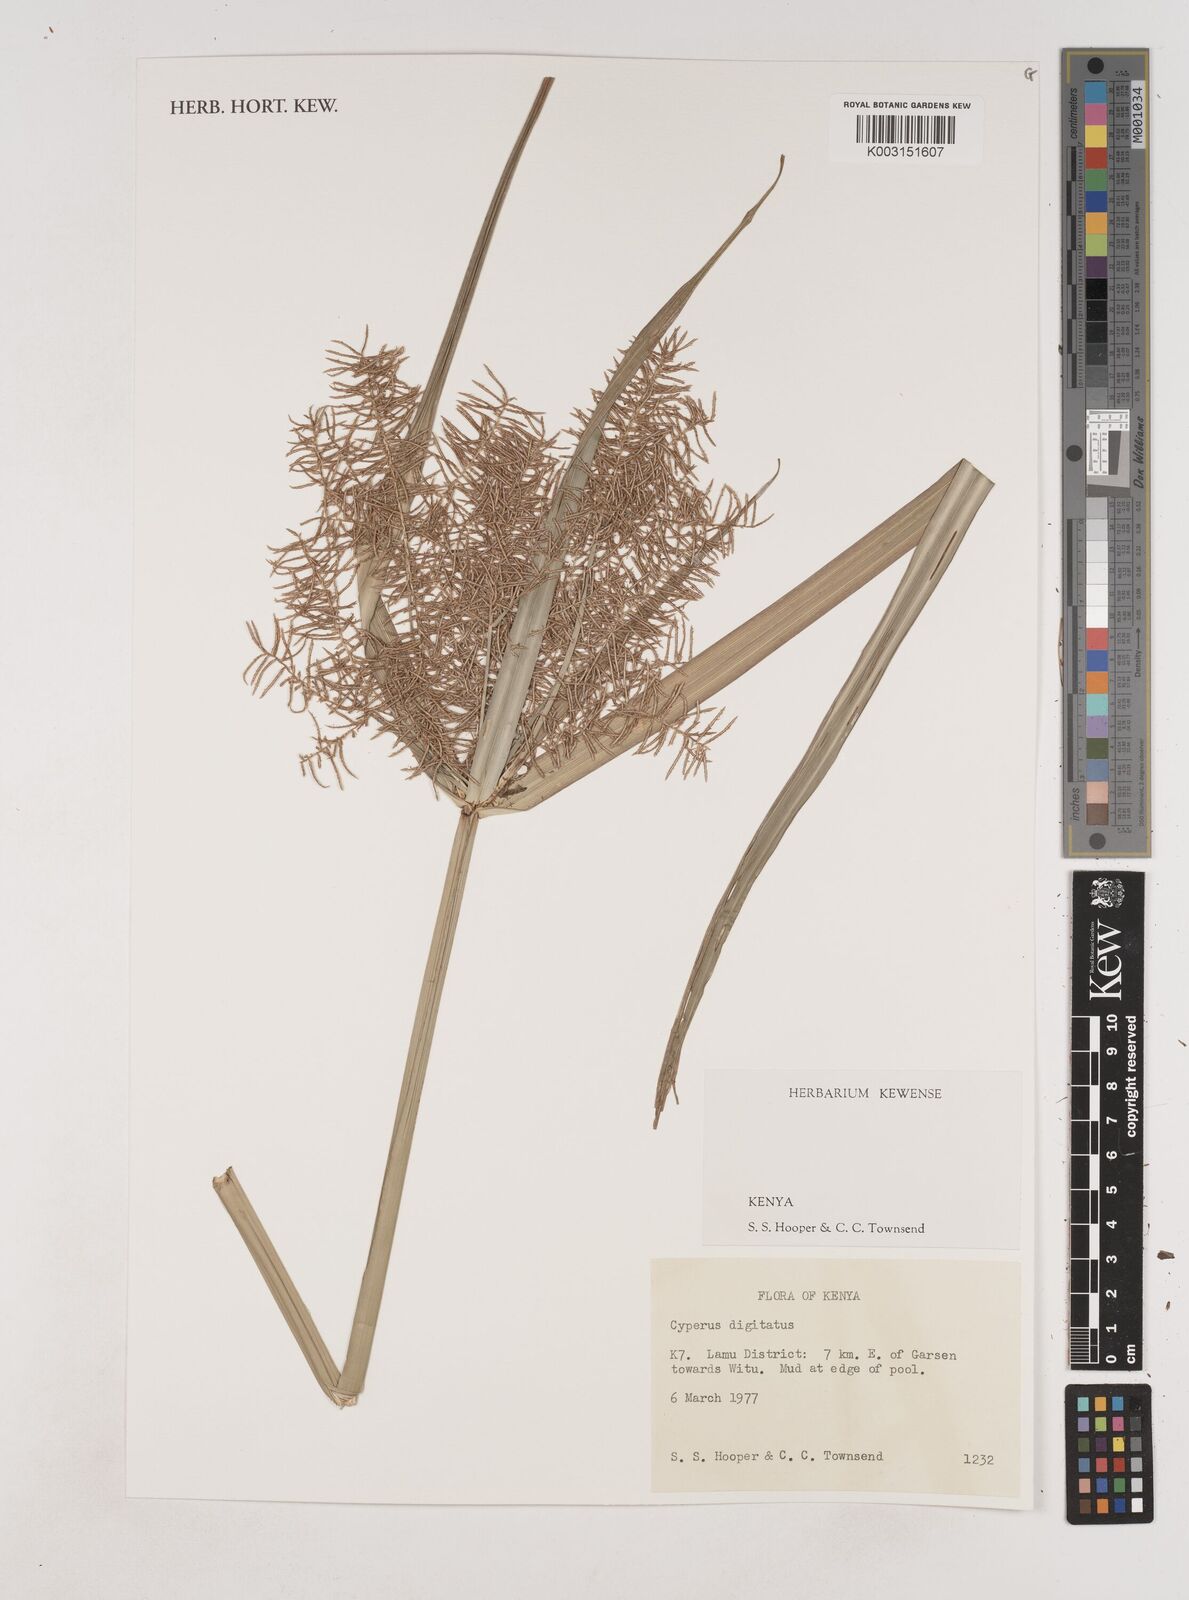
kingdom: Plantae
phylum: Tracheophyta
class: Liliopsida
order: Poales
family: Cyperaceae
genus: Cyperus
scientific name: Cyperus digitatus
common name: Finger flatsedge
